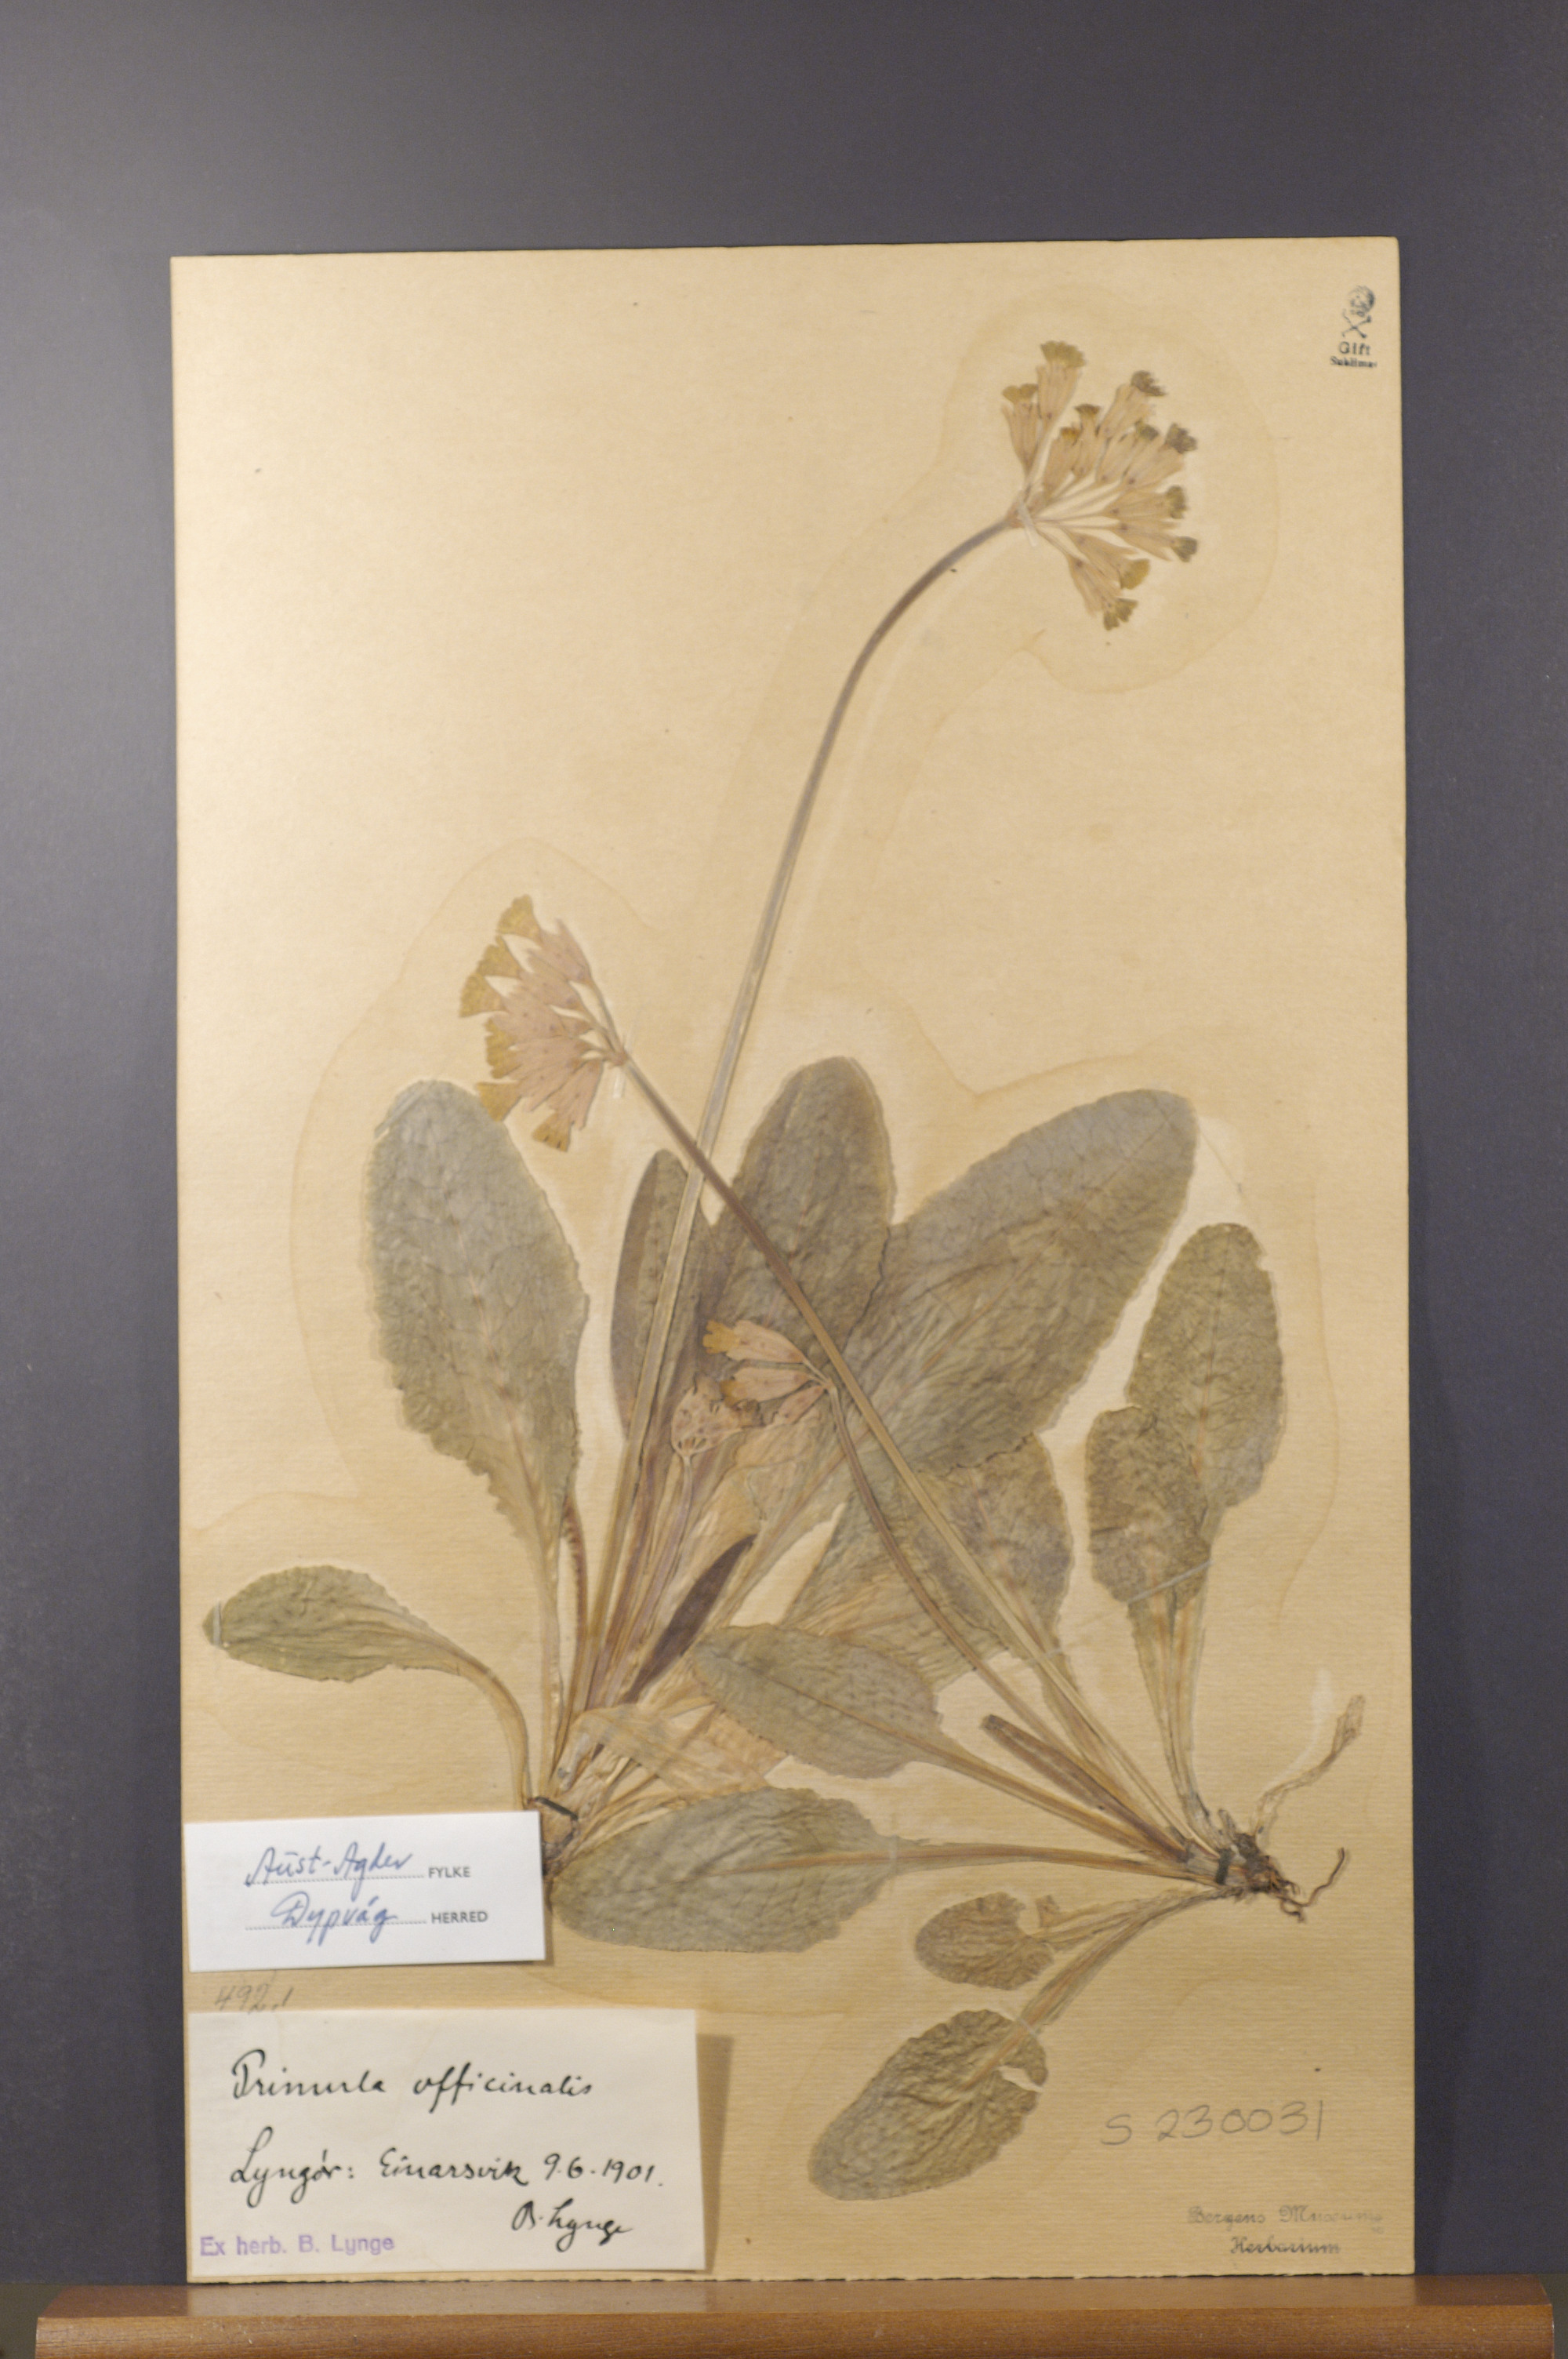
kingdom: Plantae
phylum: Tracheophyta
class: Magnoliopsida
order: Ericales
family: Primulaceae
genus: Primula
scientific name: Primula veris
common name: Cowslip
